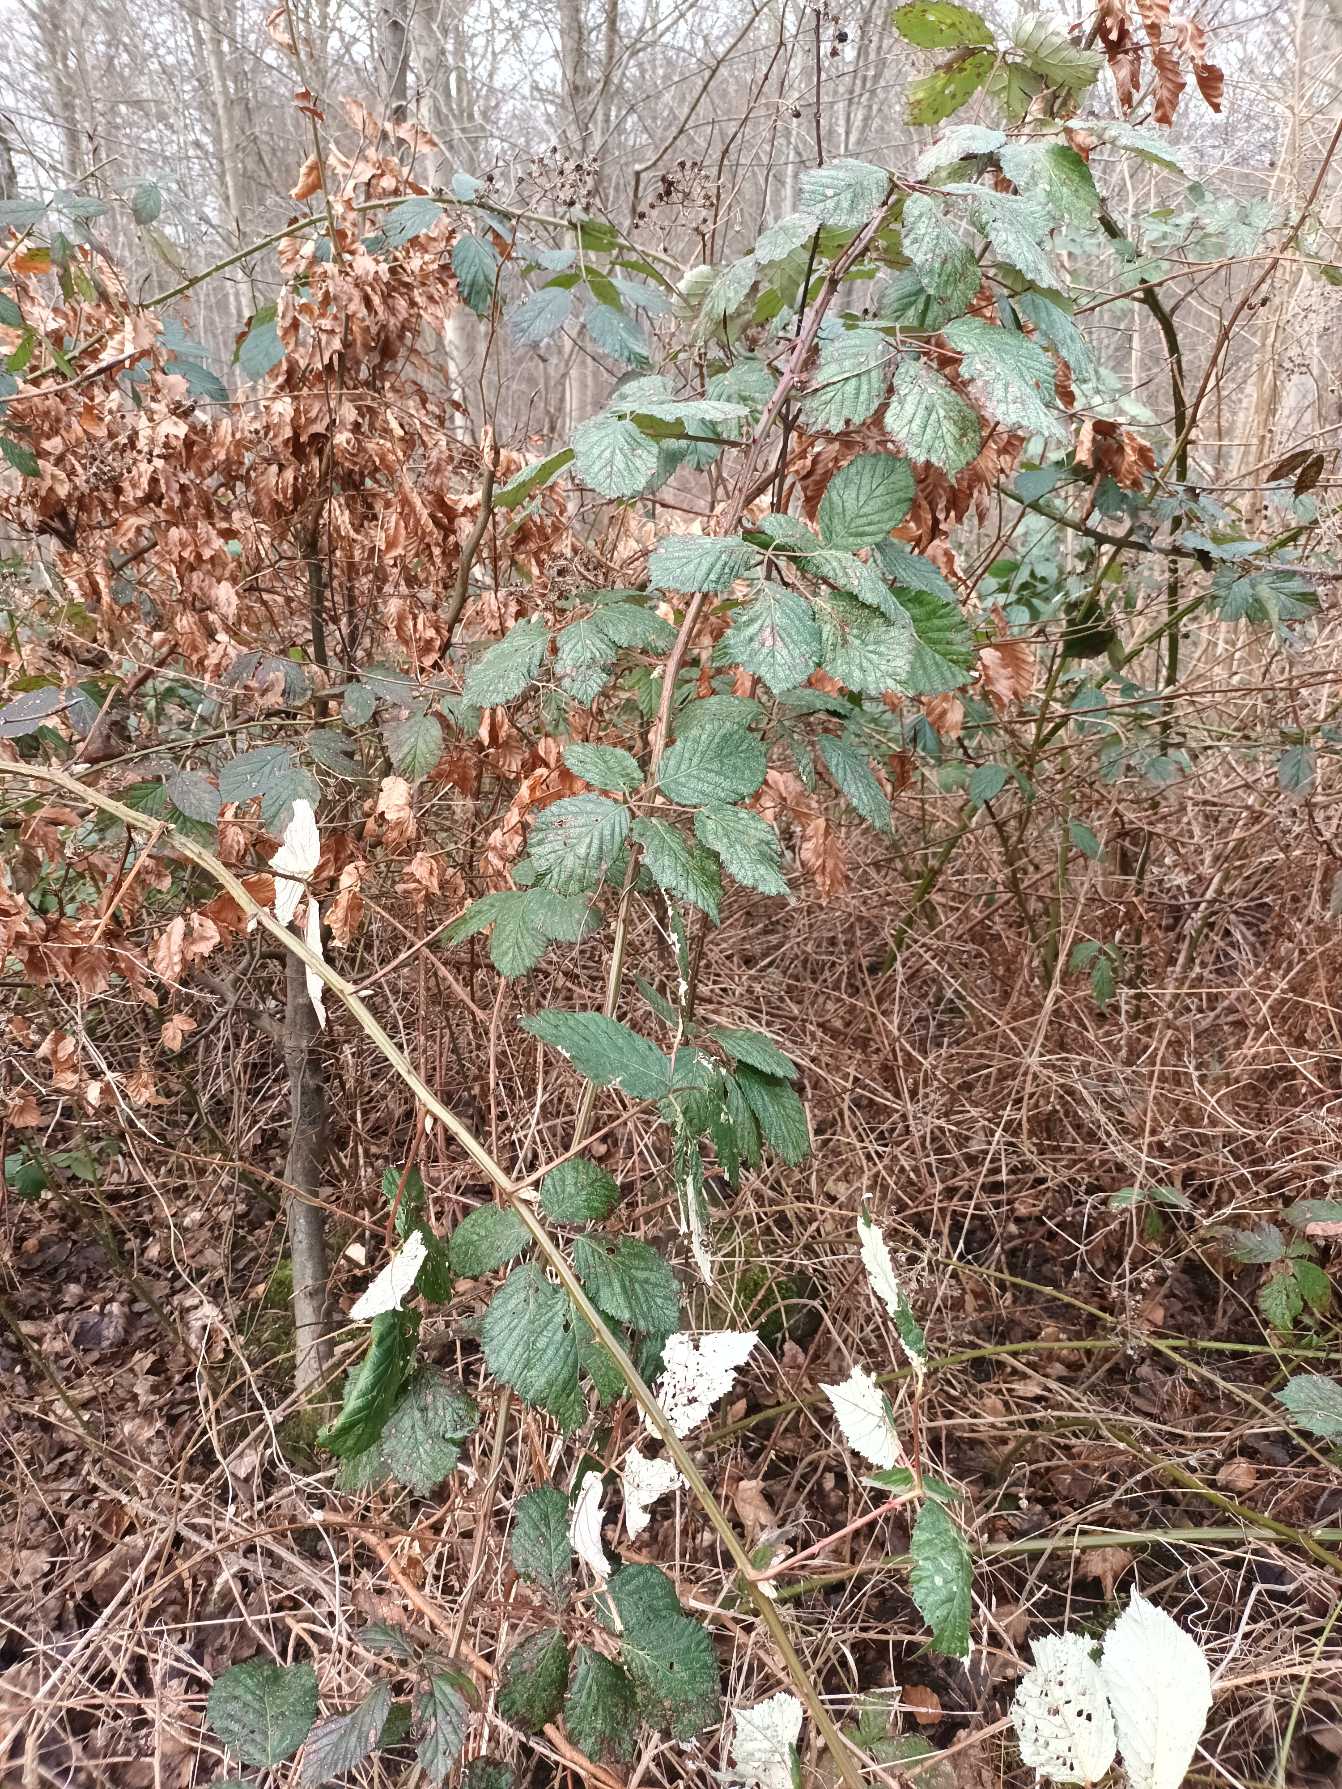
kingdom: Plantae
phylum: Tracheophyta
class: Magnoliopsida
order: Rosales
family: Rosaceae
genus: Rubus
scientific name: Rubus armeniacus
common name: Armensk brombær
